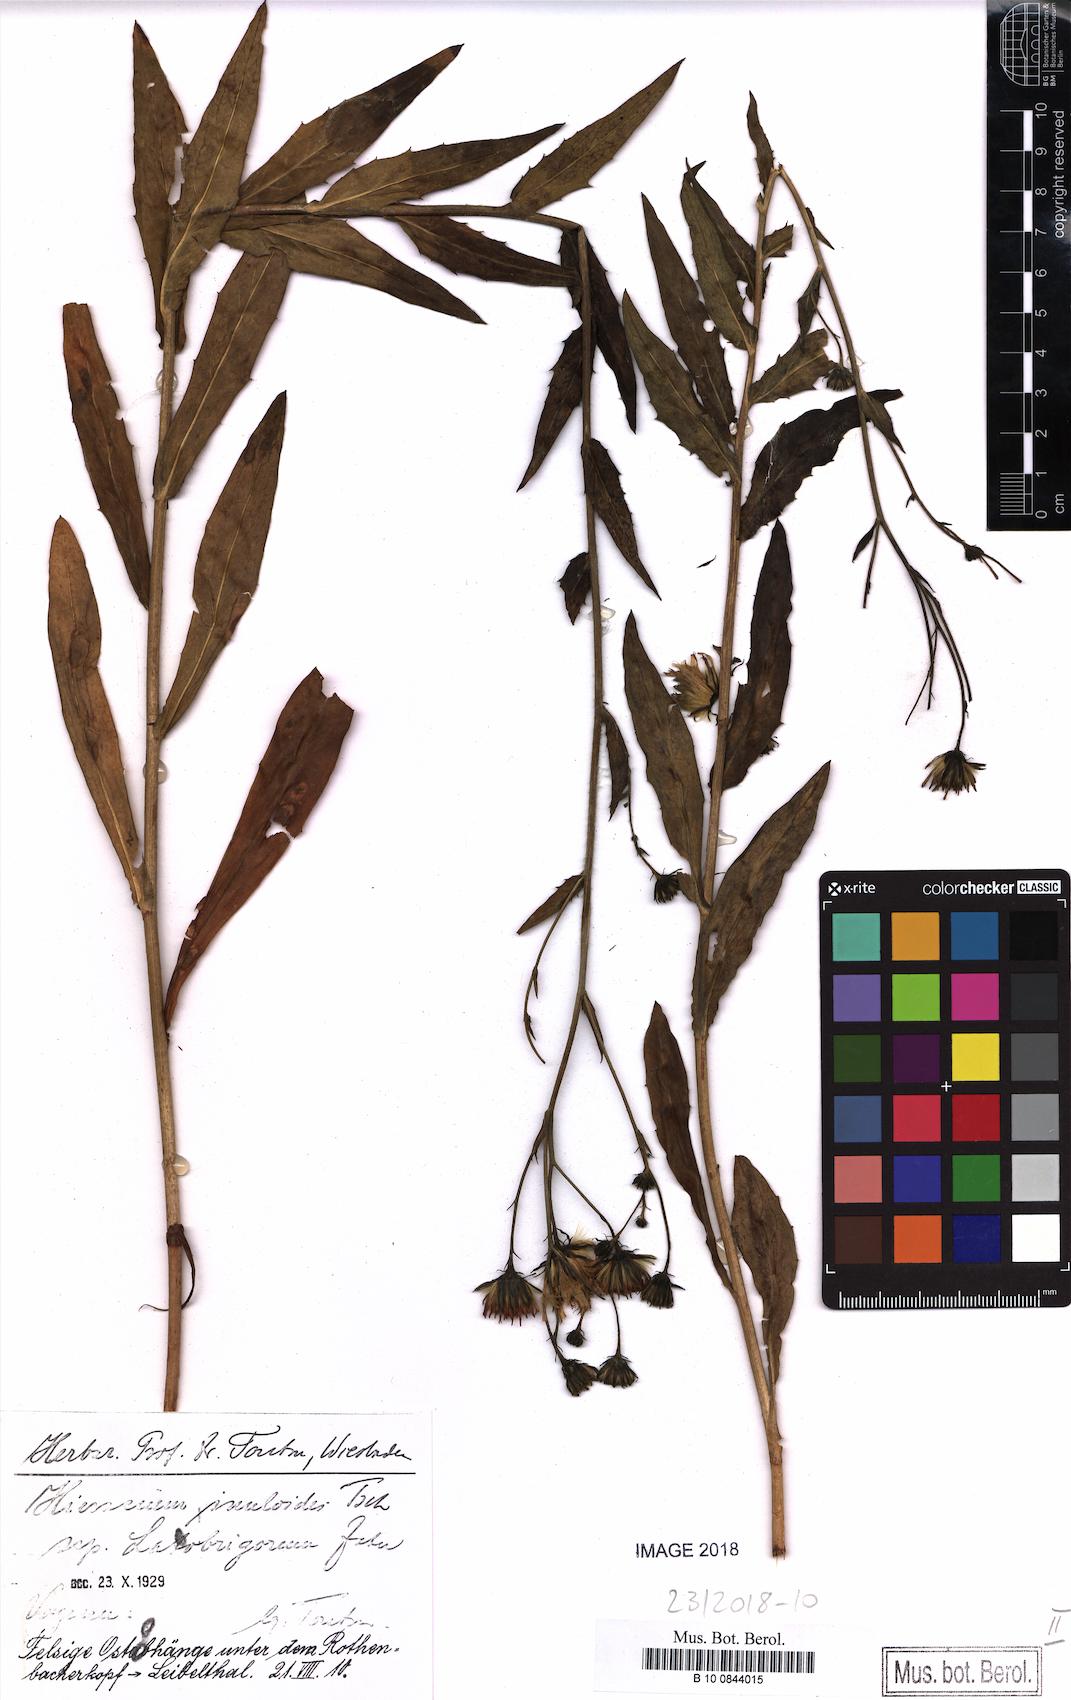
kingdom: Plantae
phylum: Tracheophyta
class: Magnoliopsida
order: Asterales
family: Asteraceae
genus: Hieracium
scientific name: Hieracium inuloides
